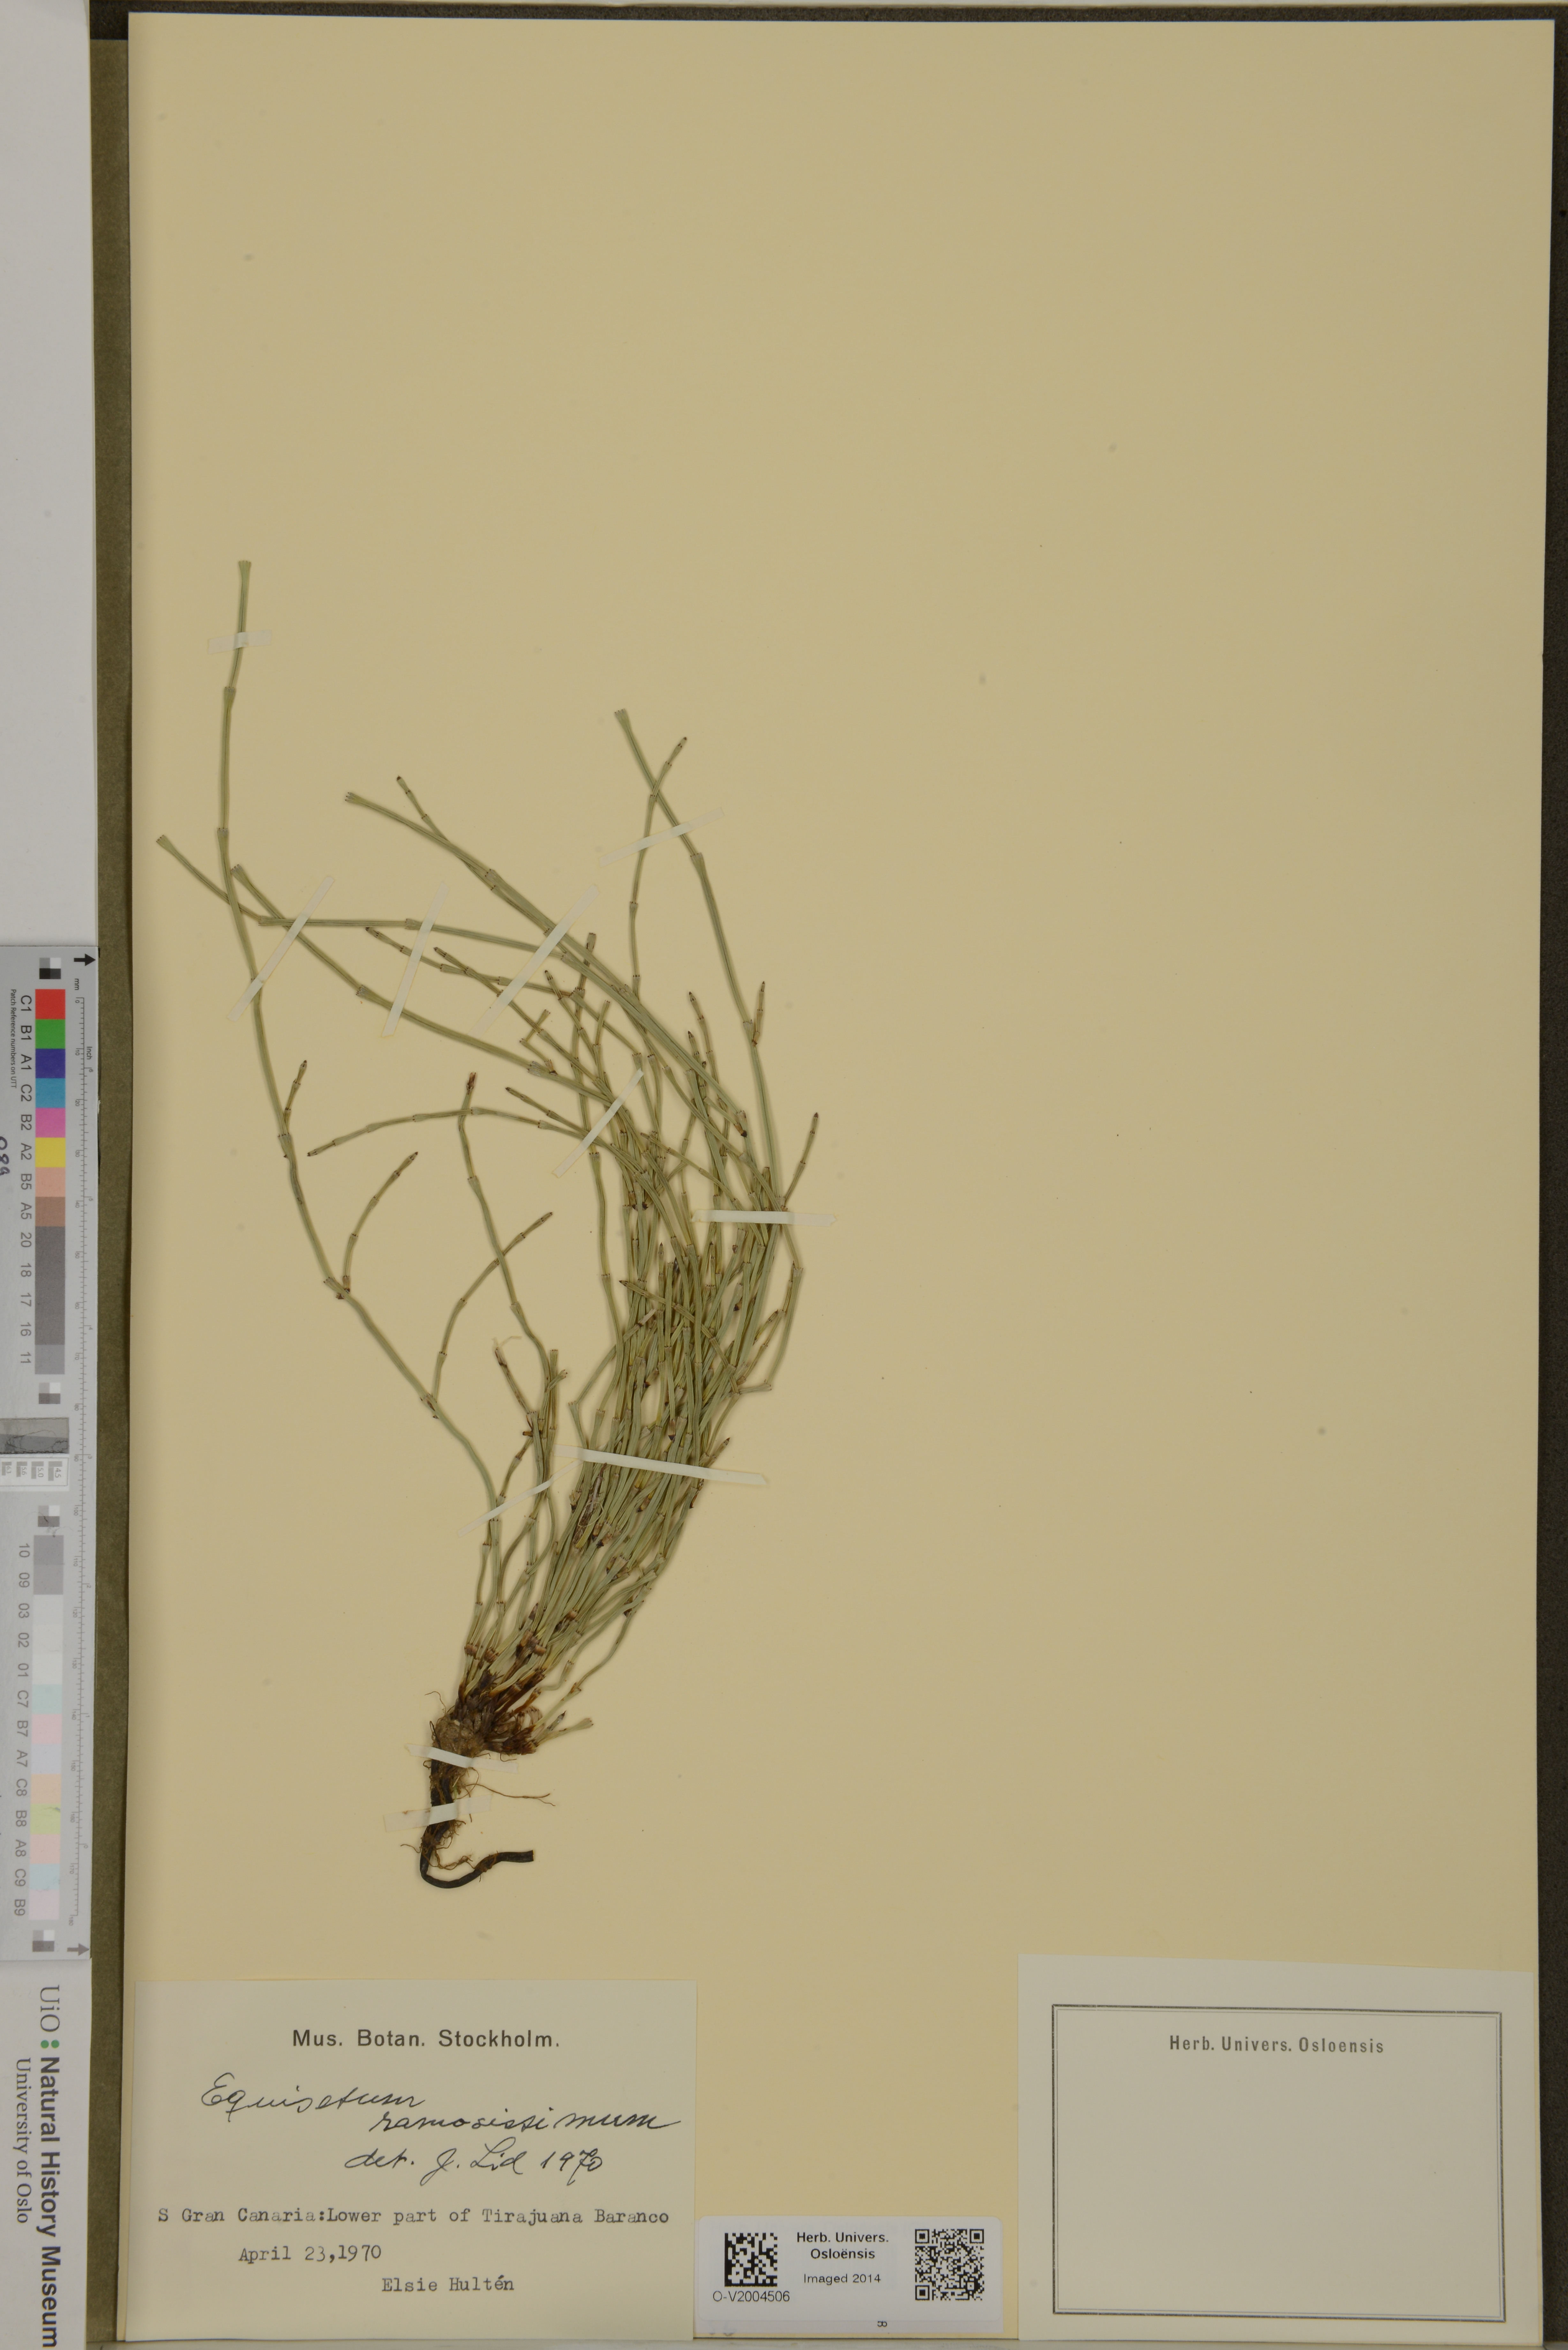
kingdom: Plantae
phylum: Tracheophyta
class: Polypodiopsida
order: Equisetales
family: Equisetaceae
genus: Equisetum
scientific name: Equisetum ramosissimum
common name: Branched horsetail
